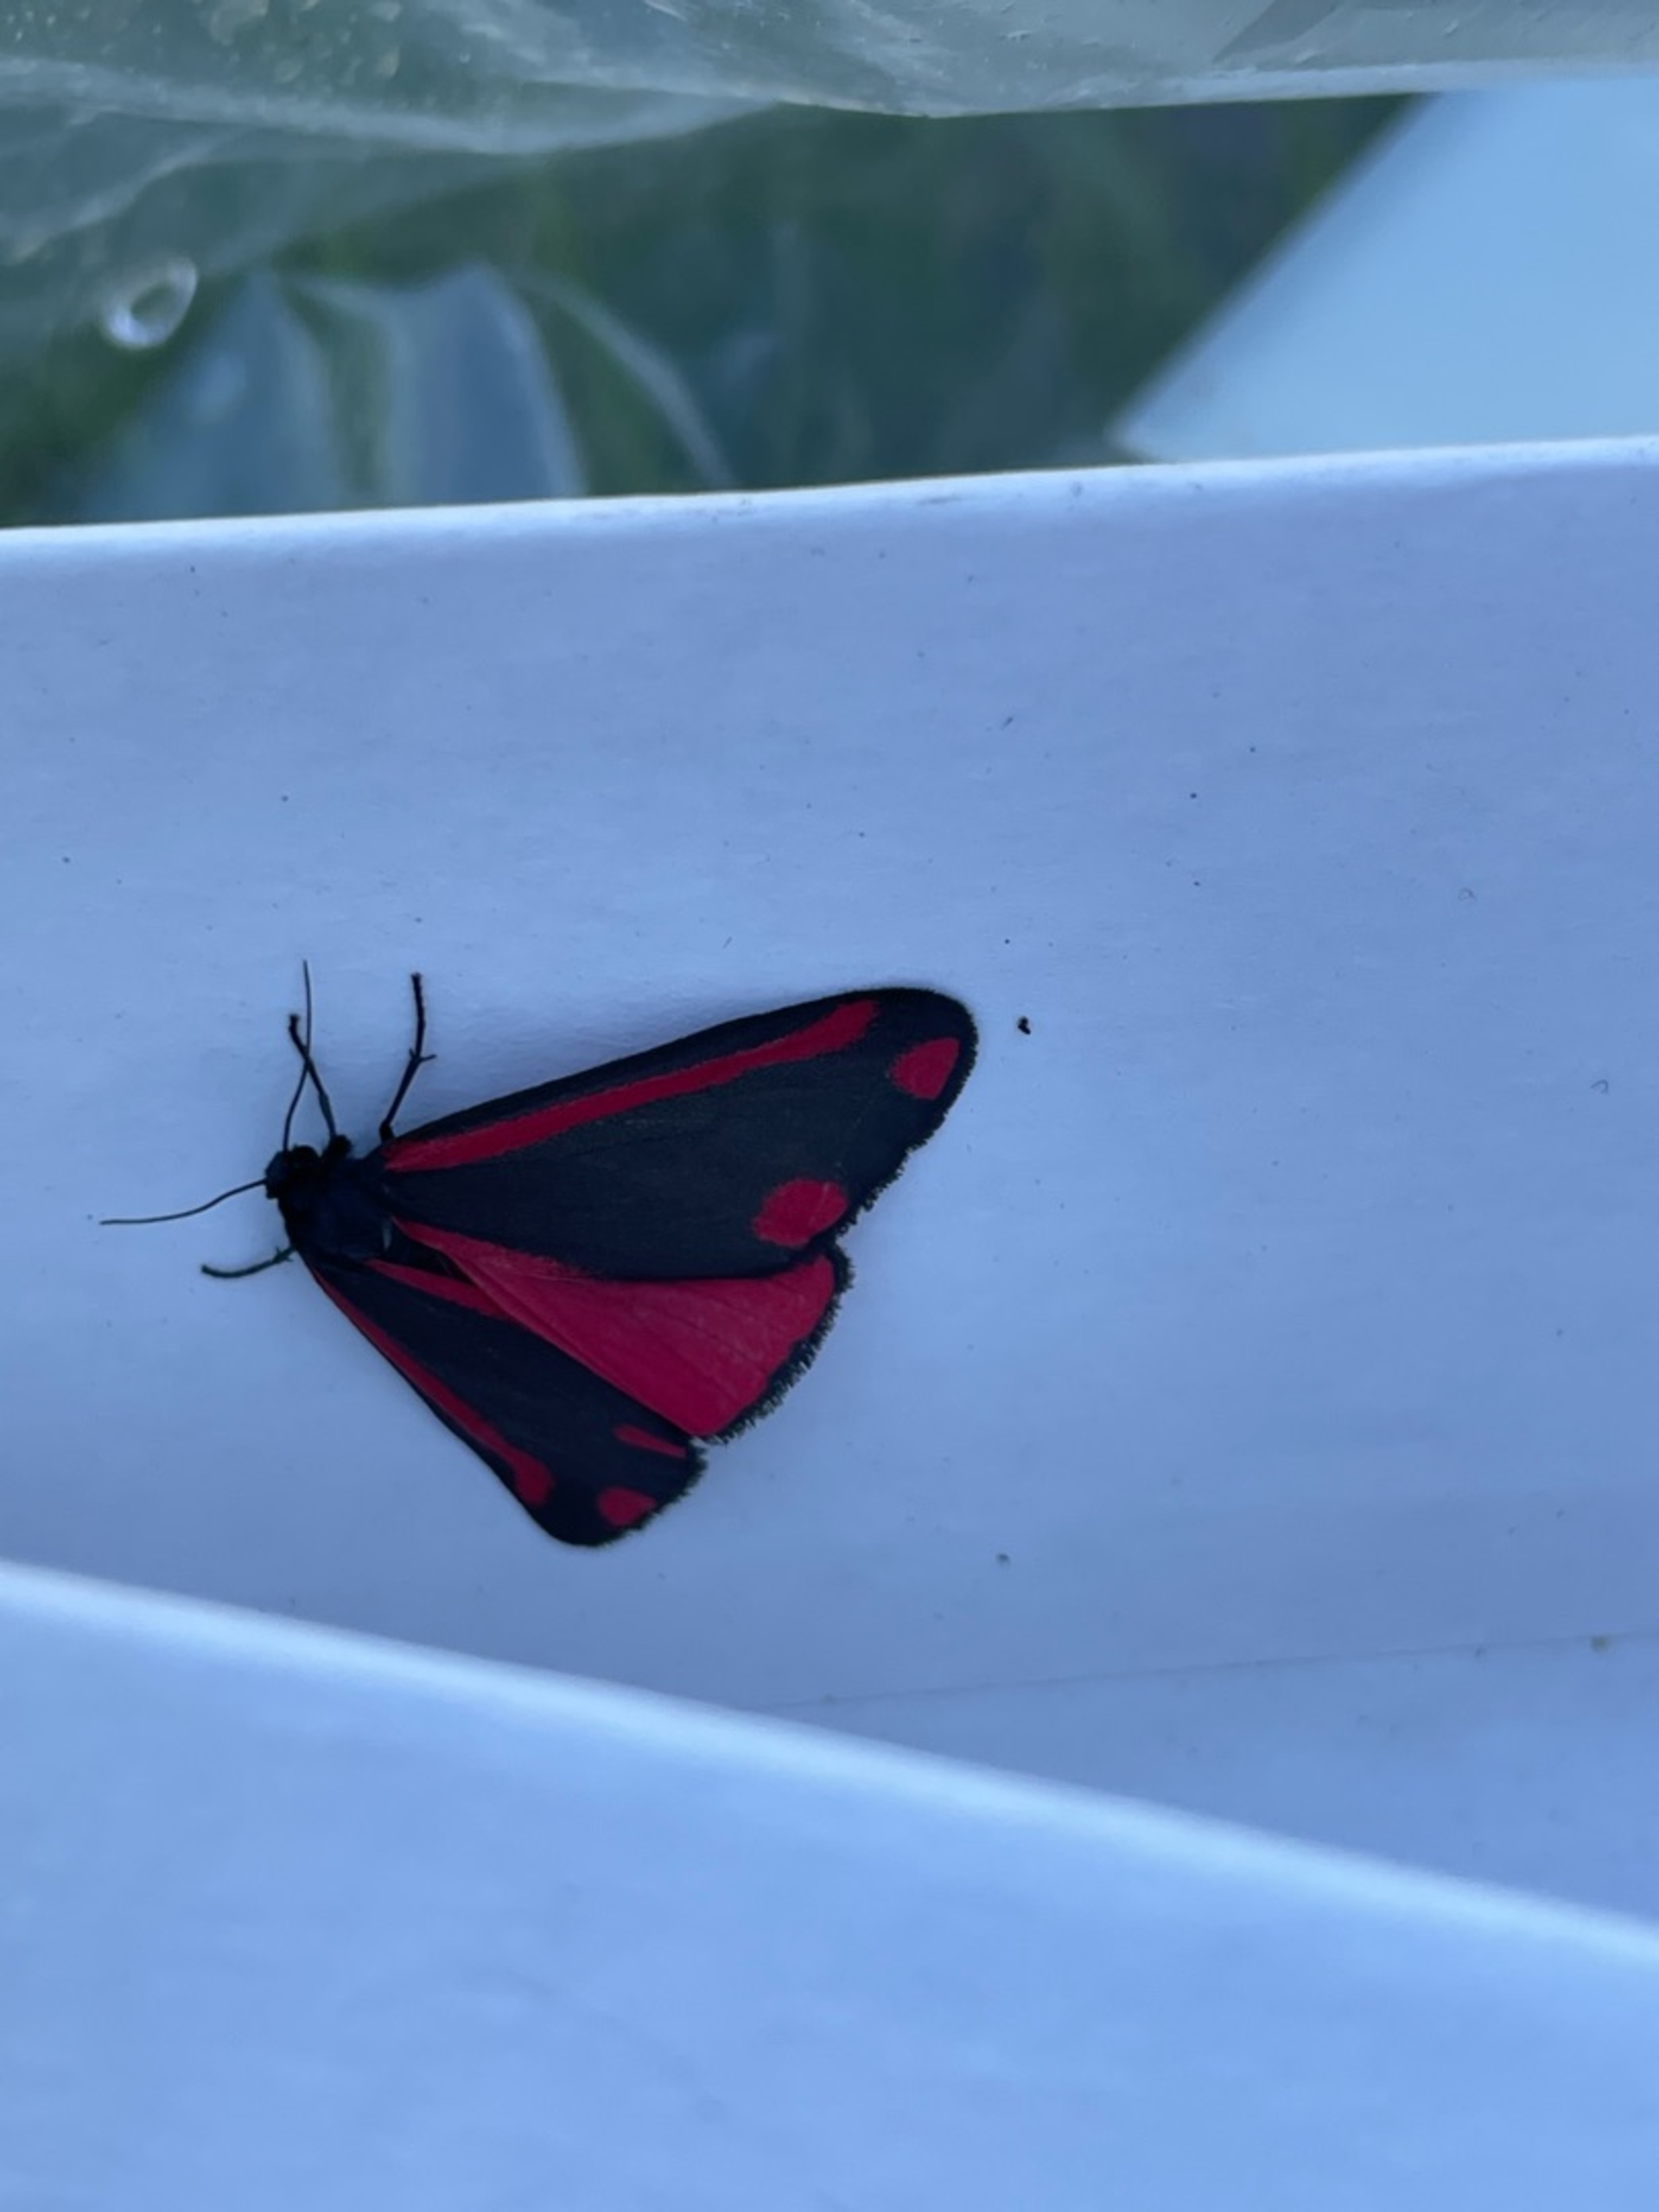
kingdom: Animalia
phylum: Arthropoda
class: Insecta
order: Lepidoptera
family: Erebidae
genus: Tyria
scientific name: Tyria jacobaeae
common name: Blodplet
